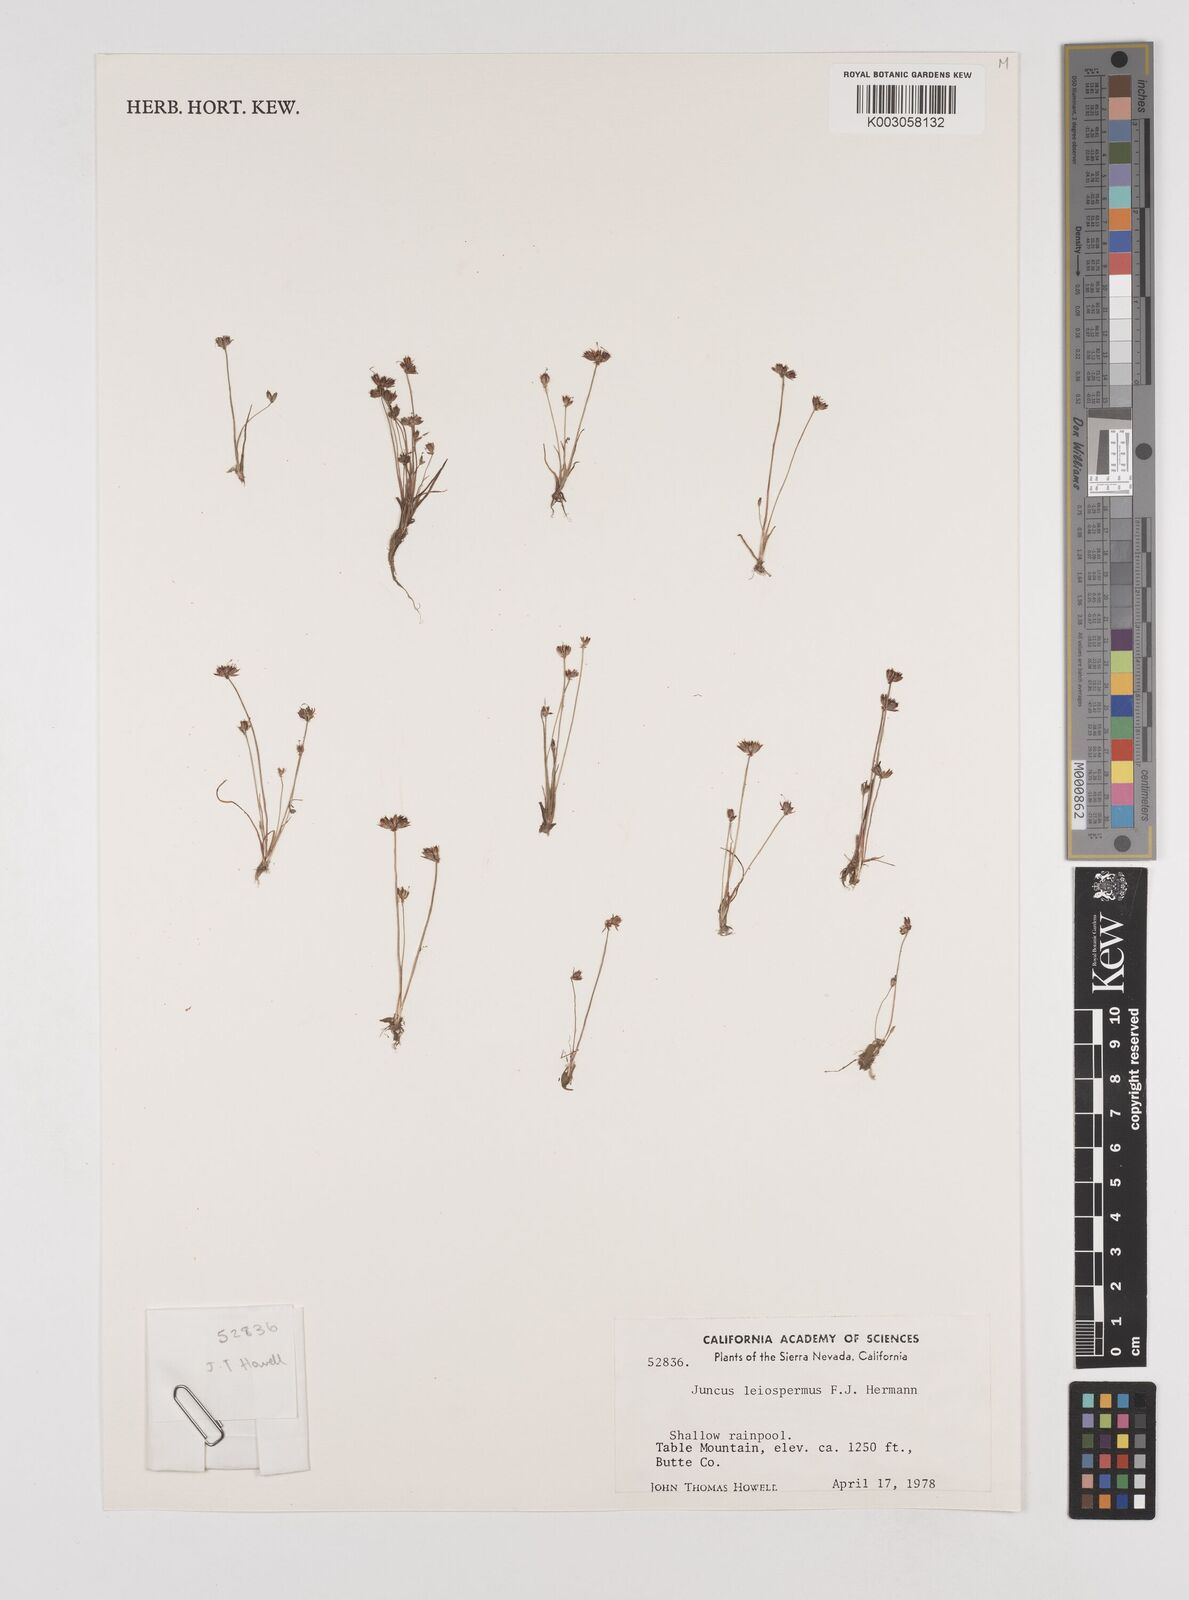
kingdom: Plantae
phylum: Tracheophyta
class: Liliopsida
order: Poales
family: Juncaceae
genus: Juncus
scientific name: Juncus leiospermus
